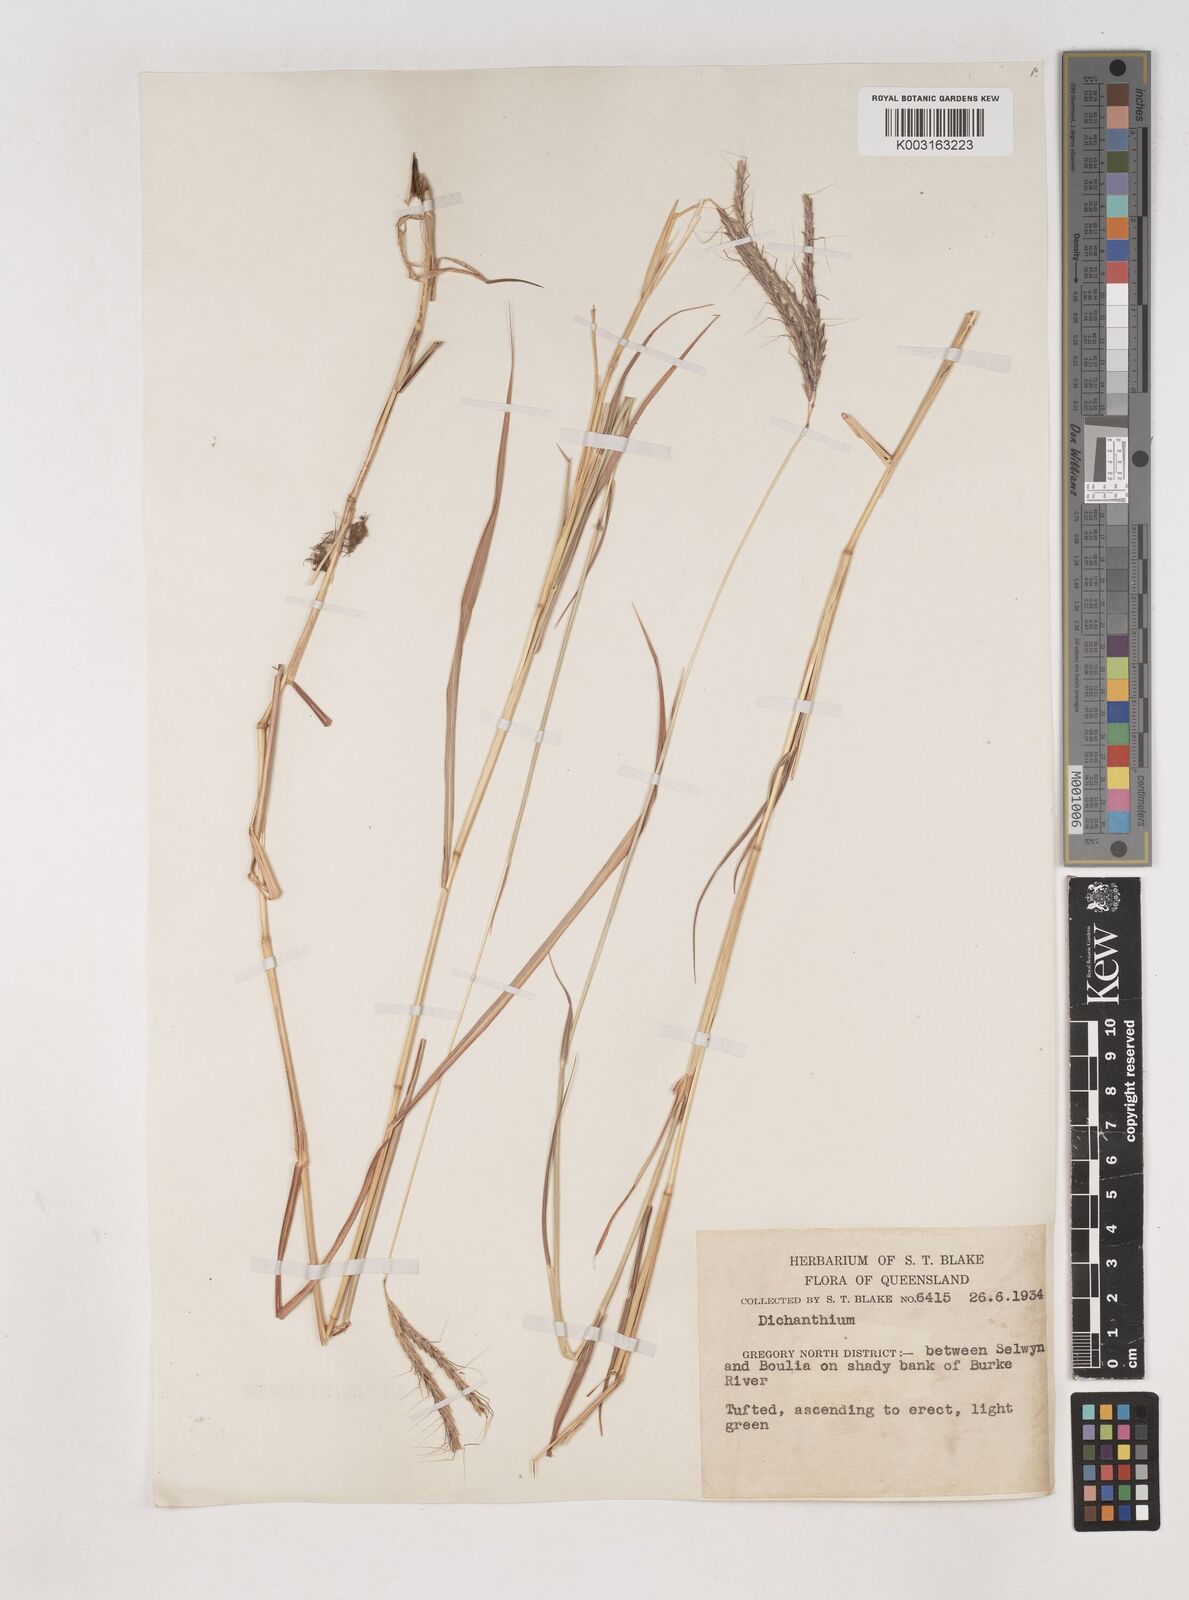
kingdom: Plantae
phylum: Tracheophyta
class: Liliopsida
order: Poales
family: Poaceae
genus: Dichanthium
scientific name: Dichanthium fecundum
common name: Bundle-bundle
